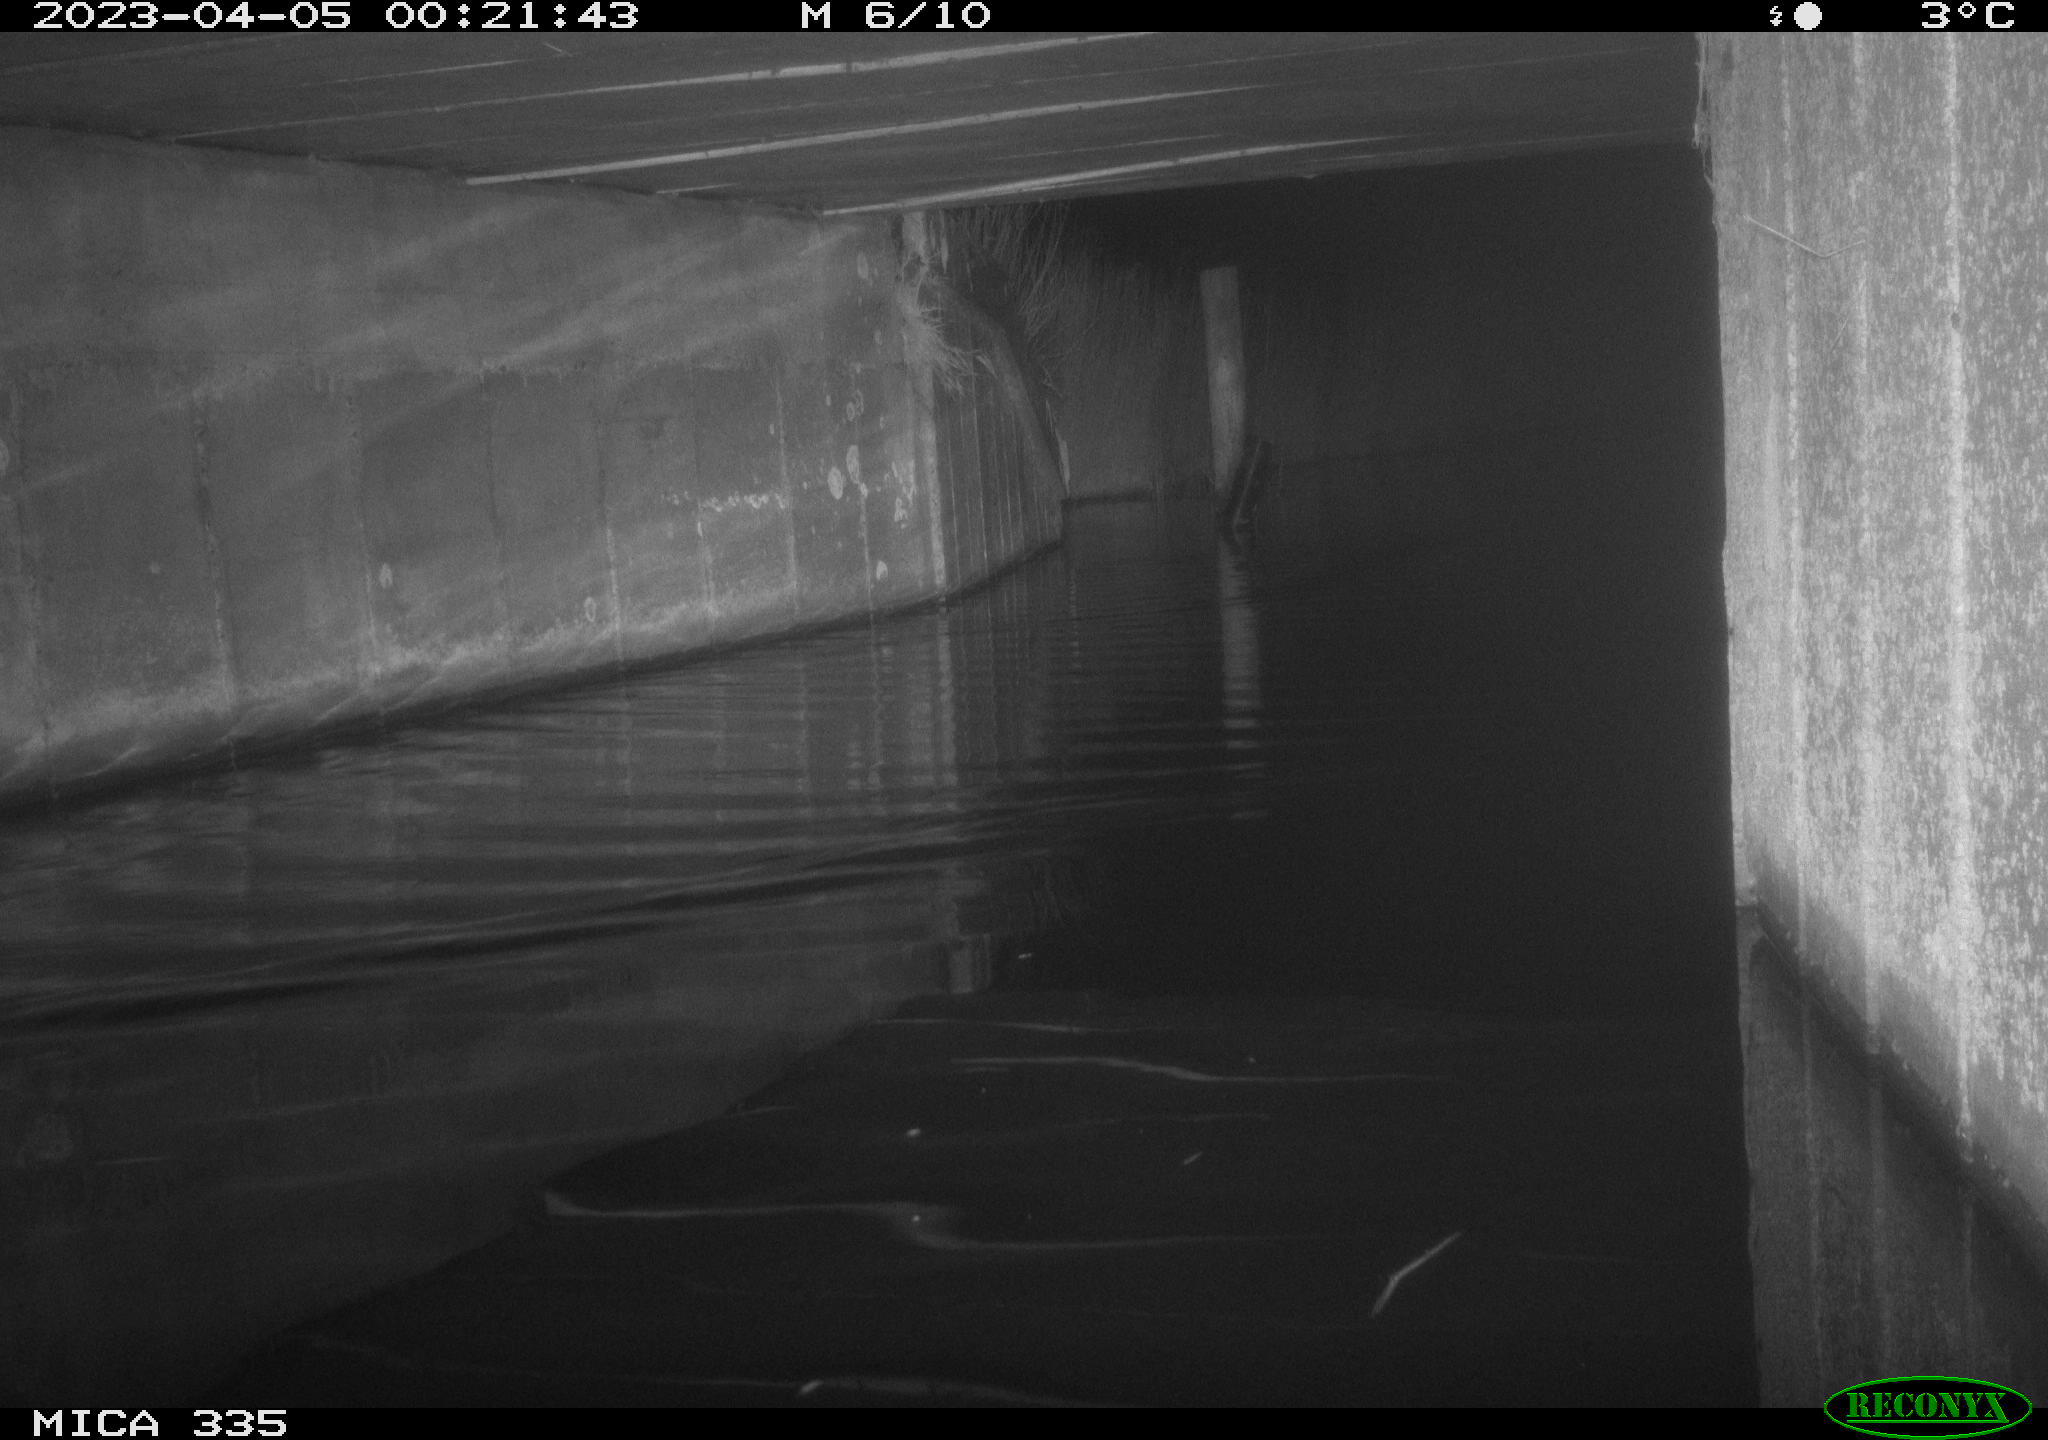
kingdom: Animalia
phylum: Chordata
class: Aves
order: Anseriformes
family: Anatidae
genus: Anas
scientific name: Anas
